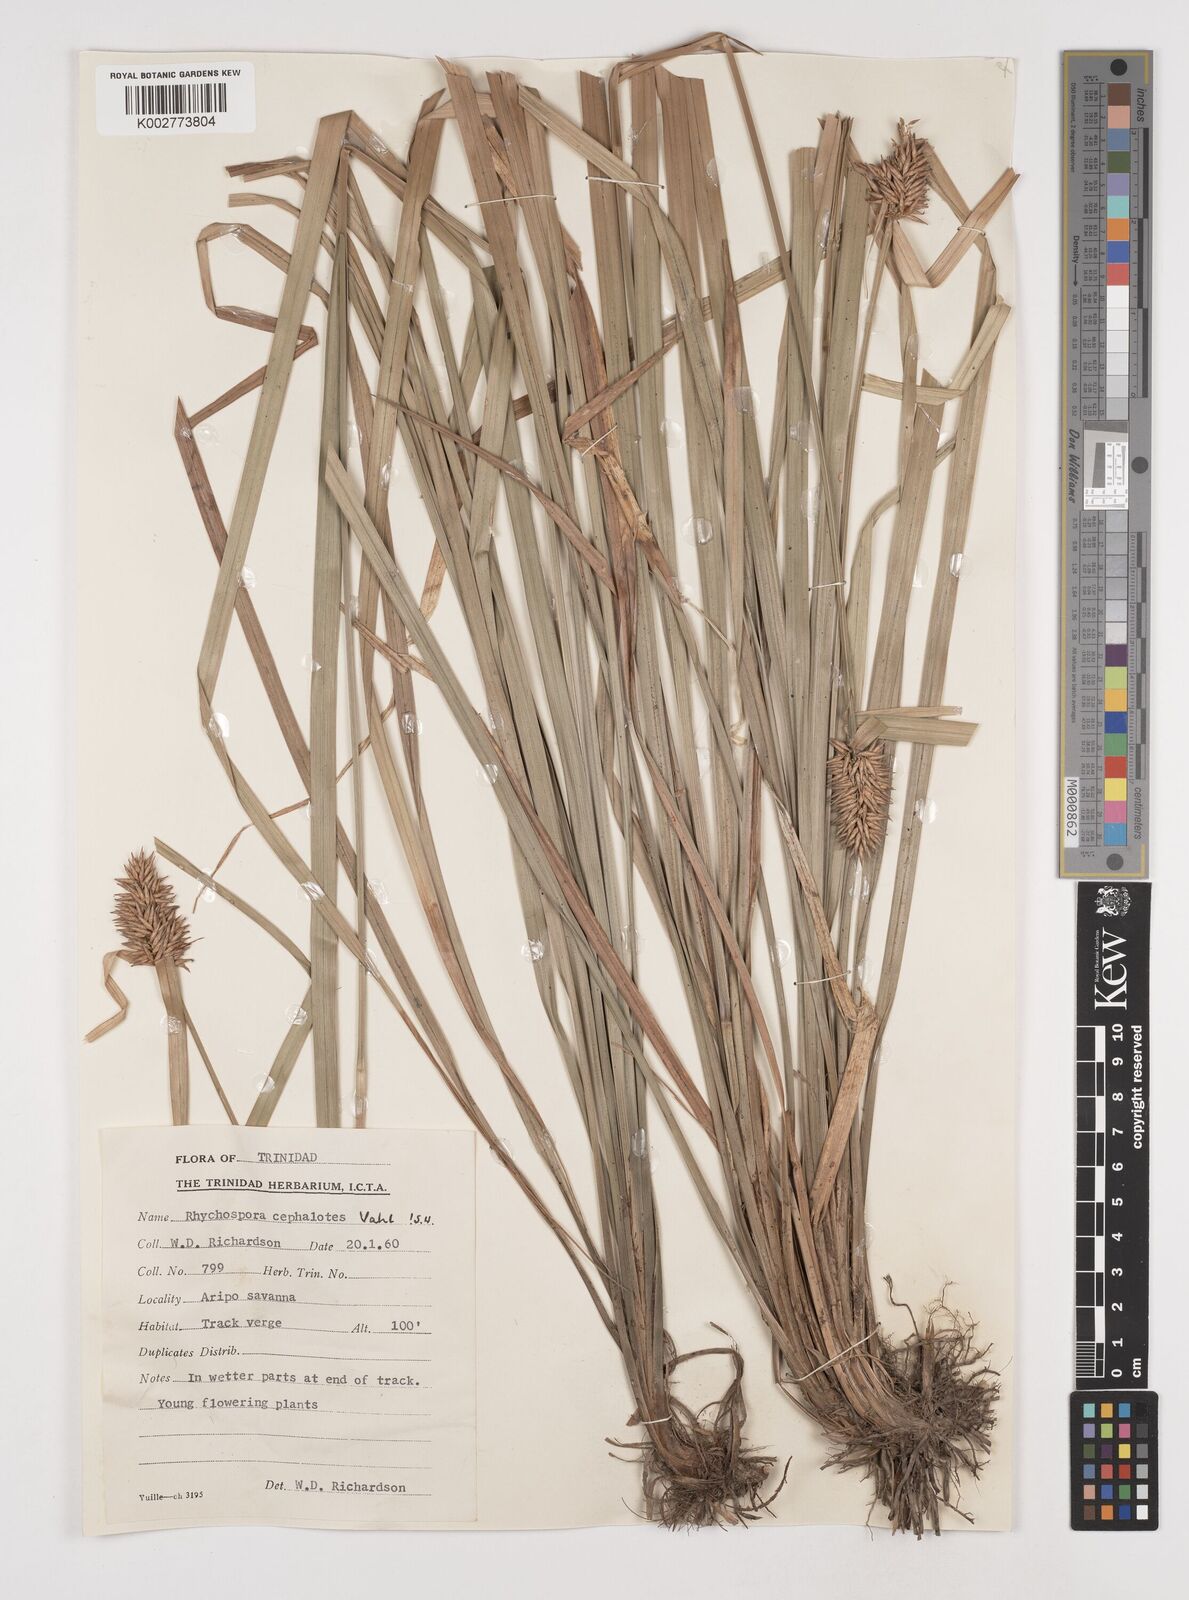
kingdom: Plantae
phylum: Tracheophyta
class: Liliopsida
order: Poales
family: Cyperaceae
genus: Rhynchospora
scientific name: Rhynchospora cephalotes
